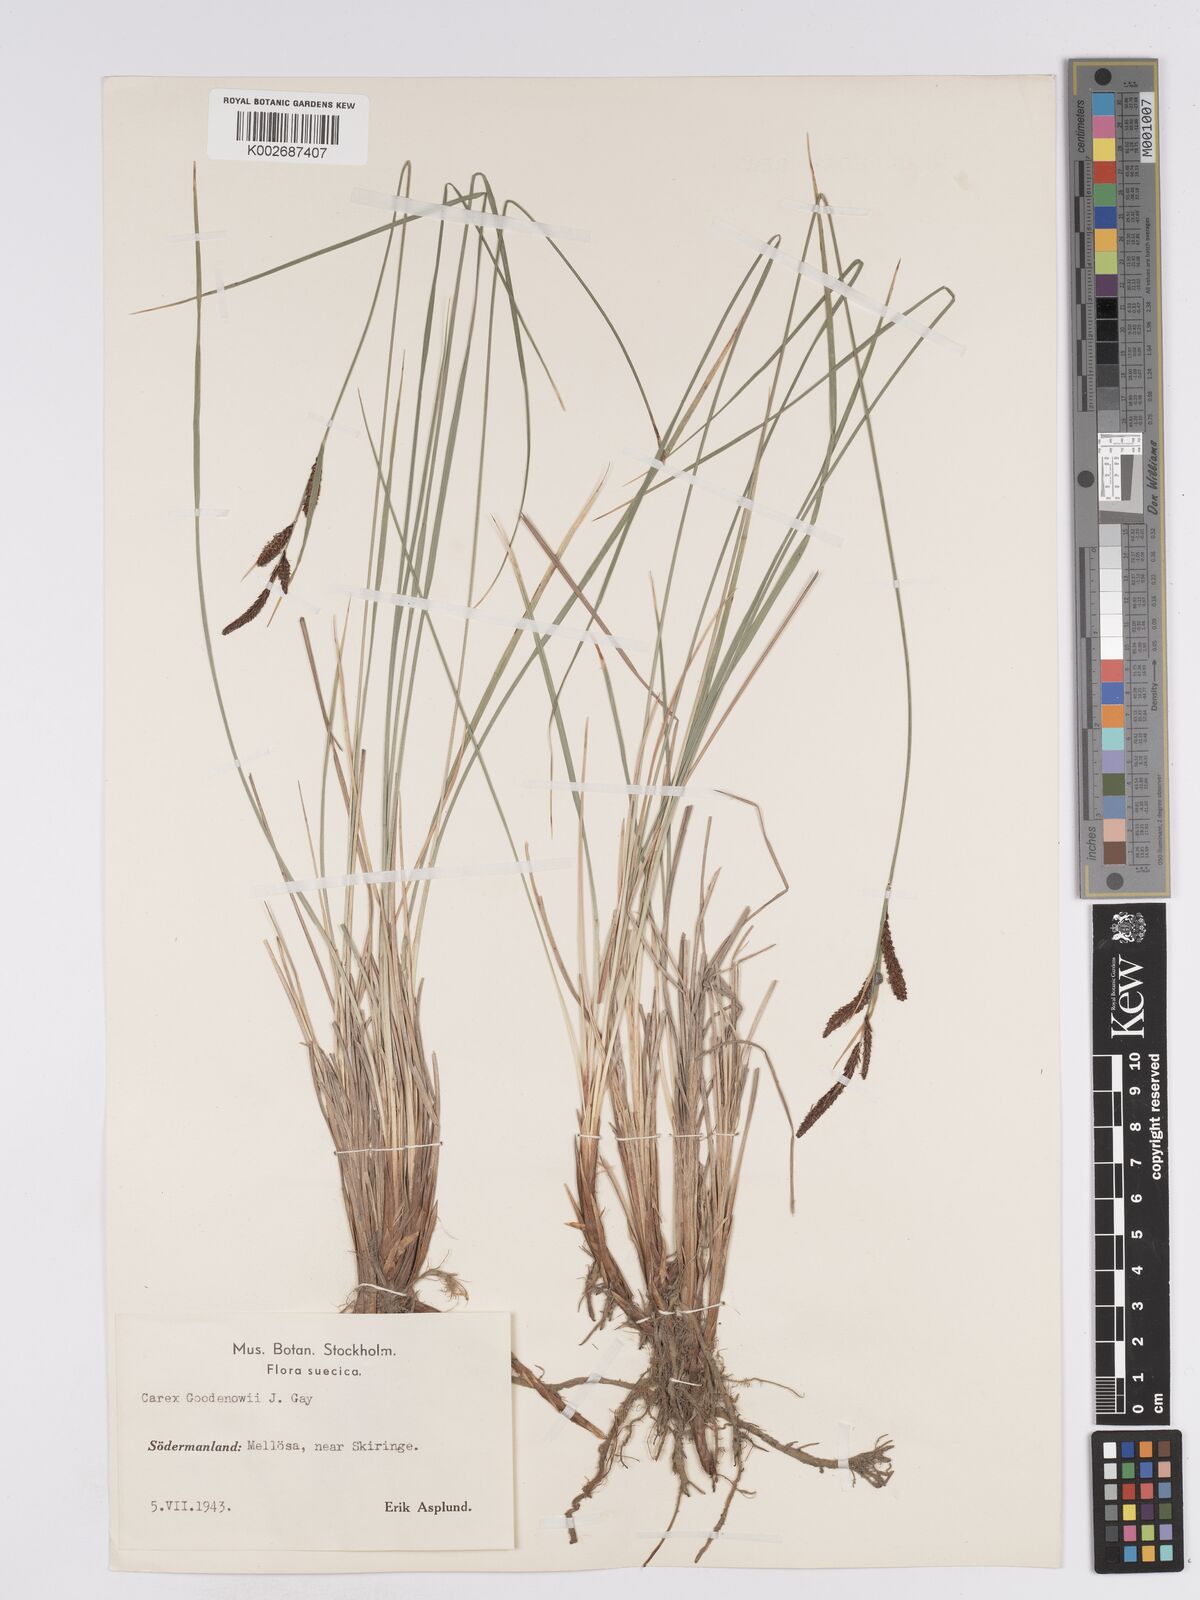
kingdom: Plantae
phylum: Tracheophyta
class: Liliopsida
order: Poales
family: Cyperaceae
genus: Carex
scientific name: Carex nigra
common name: Common sedge
